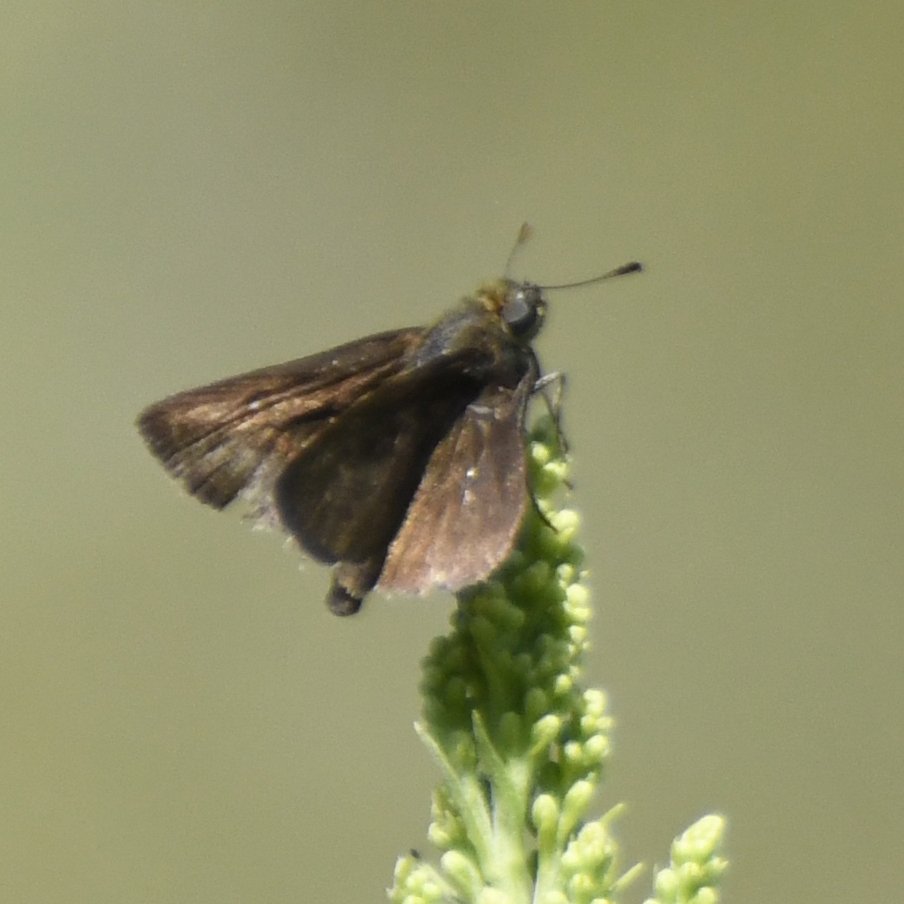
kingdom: Animalia
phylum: Arthropoda
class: Insecta
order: Lepidoptera
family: Hesperiidae
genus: Euphyes
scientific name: Euphyes vestris
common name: Dun Skipper
